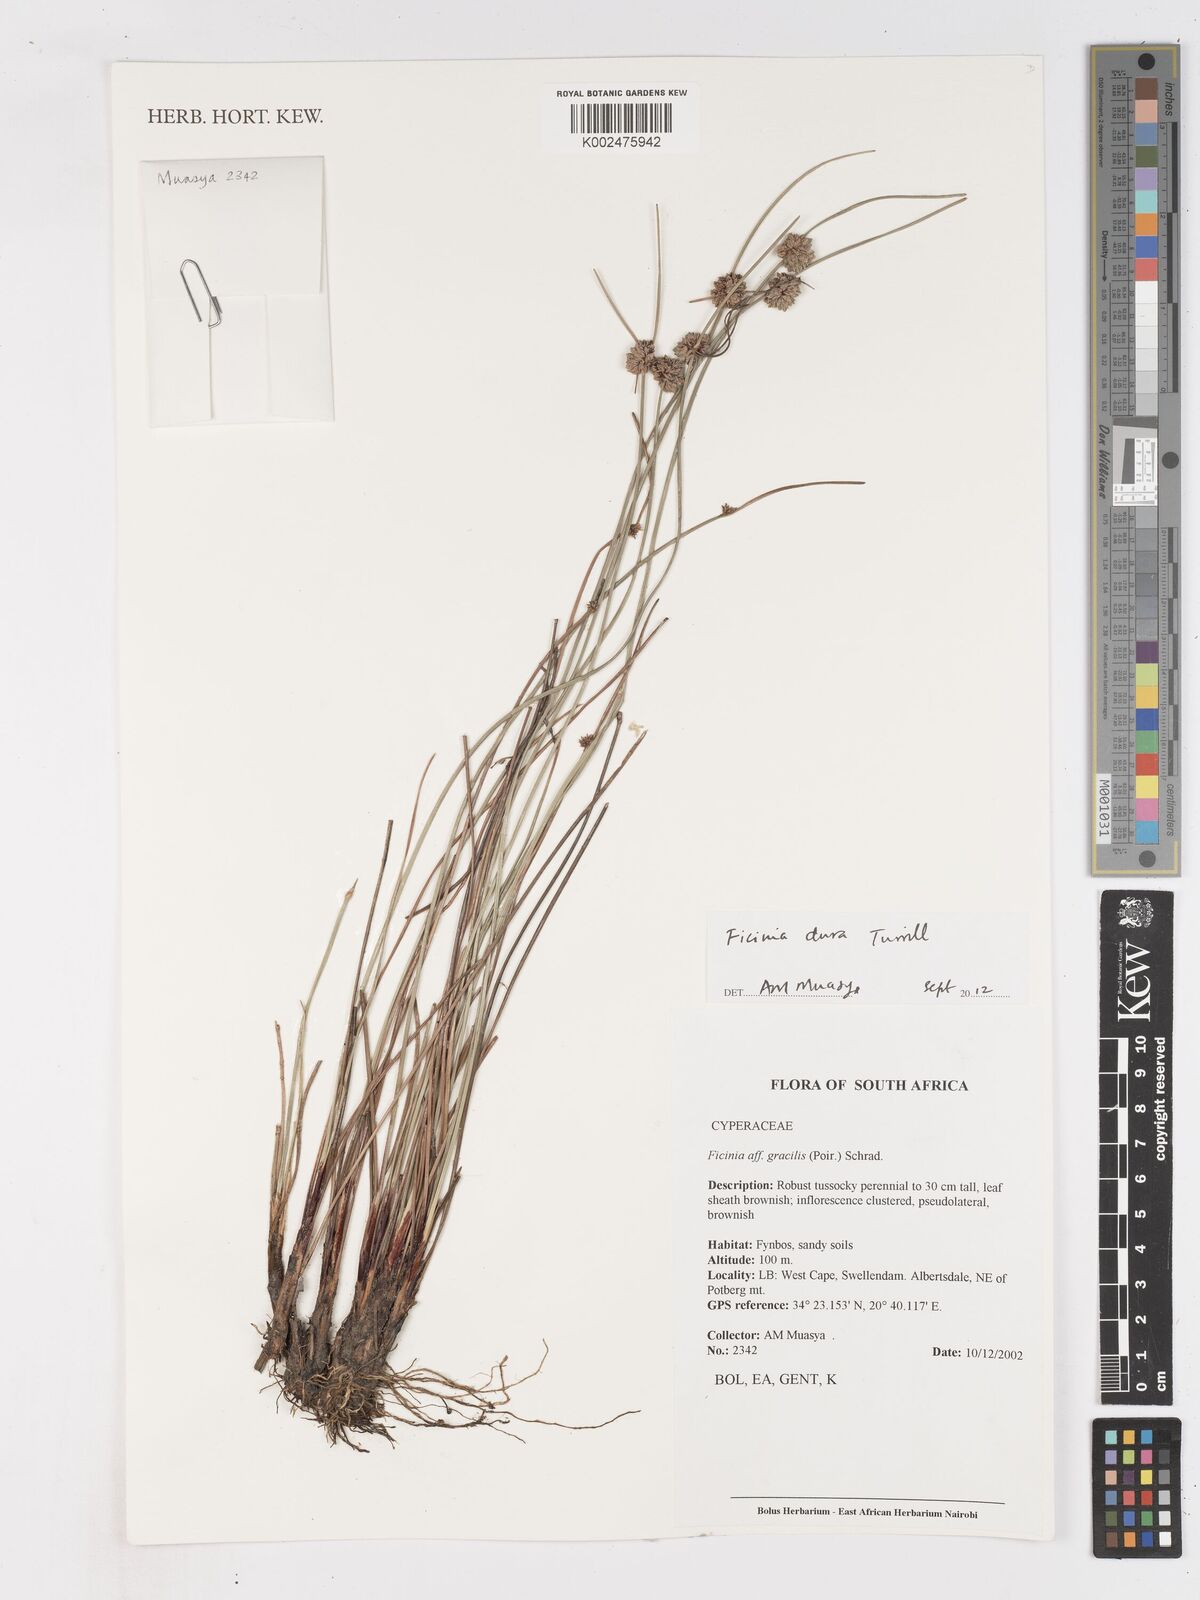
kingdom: Plantae
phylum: Tracheophyta
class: Liliopsida
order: Poales
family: Cyperaceae
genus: Ficinia
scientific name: Ficinia dura
